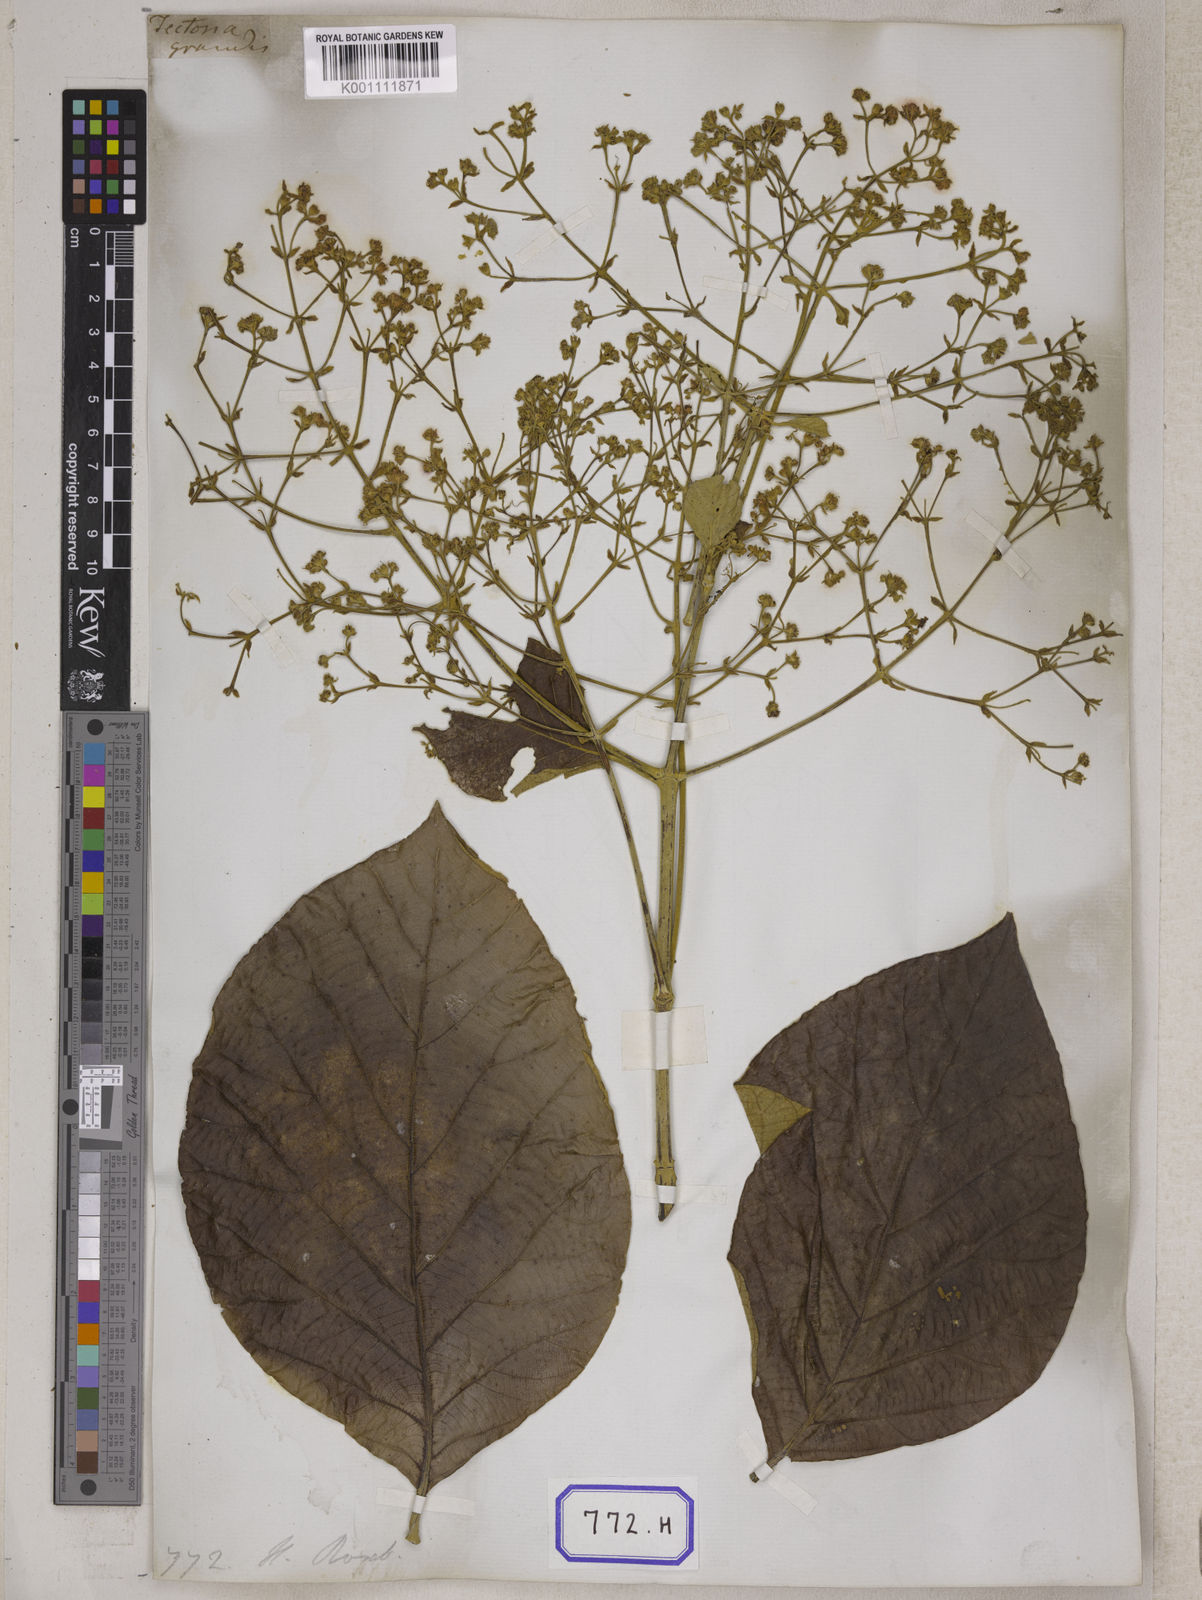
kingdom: Plantae
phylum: Tracheophyta
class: Magnoliopsida
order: Lamiales
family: Lamiaceae
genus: Tectona
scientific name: Tectona
